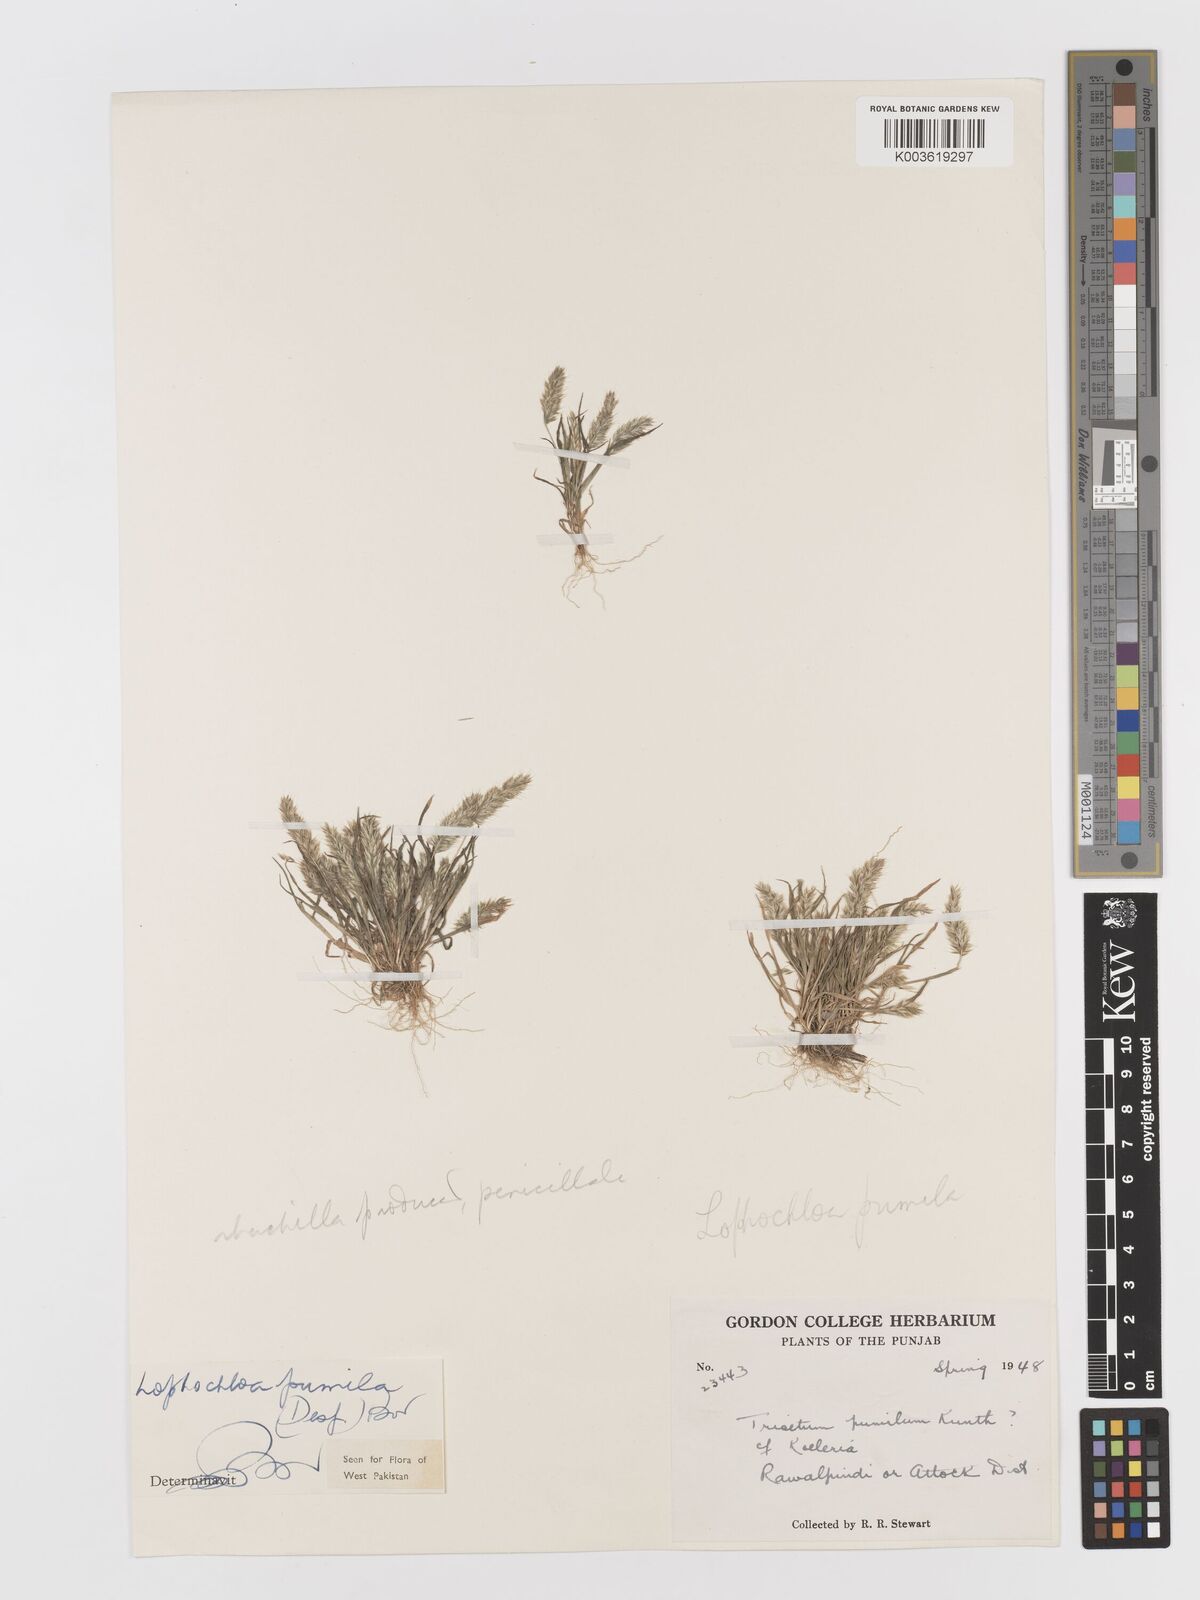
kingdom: Plantae
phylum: Tracheophyta
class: Liliopsida
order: Poales
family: Poaceae
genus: Rostraria
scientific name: Rostraria pumila
